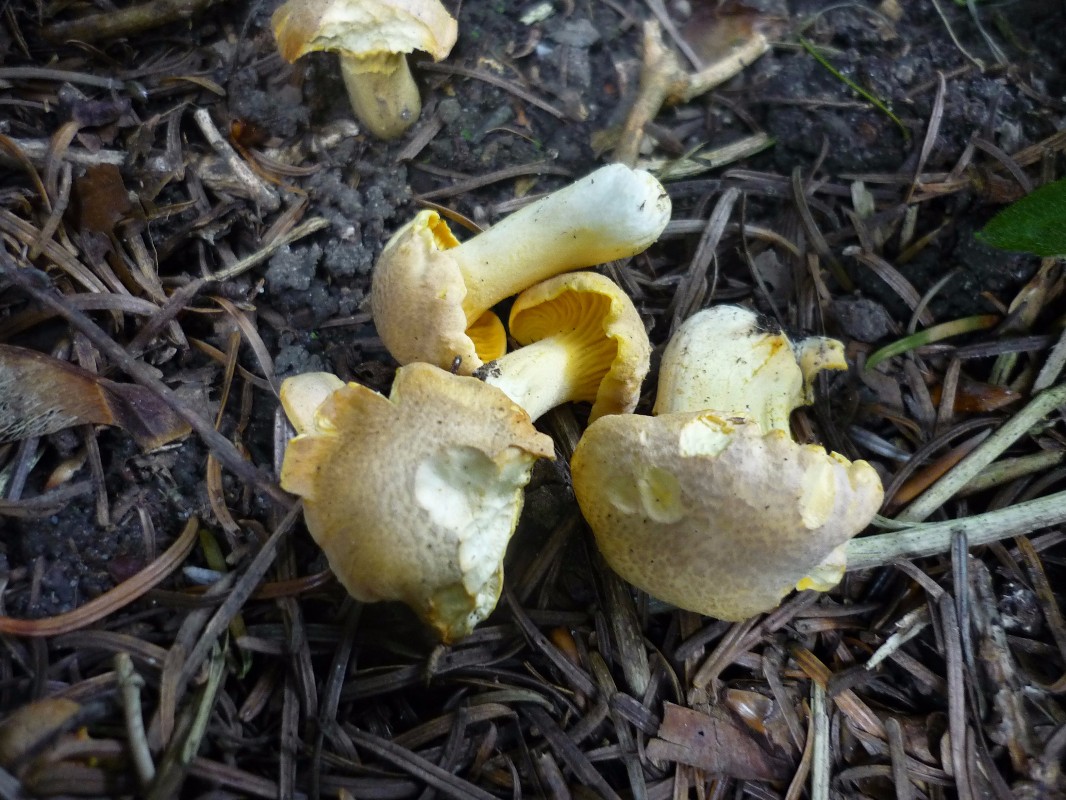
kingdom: Fungi
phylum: Basidiomycota
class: Agaricomycetes
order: Cantharellales
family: Hydnaceae
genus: Cantharellus
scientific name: Cantharellus amethysteus
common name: ametyst-kantarel
